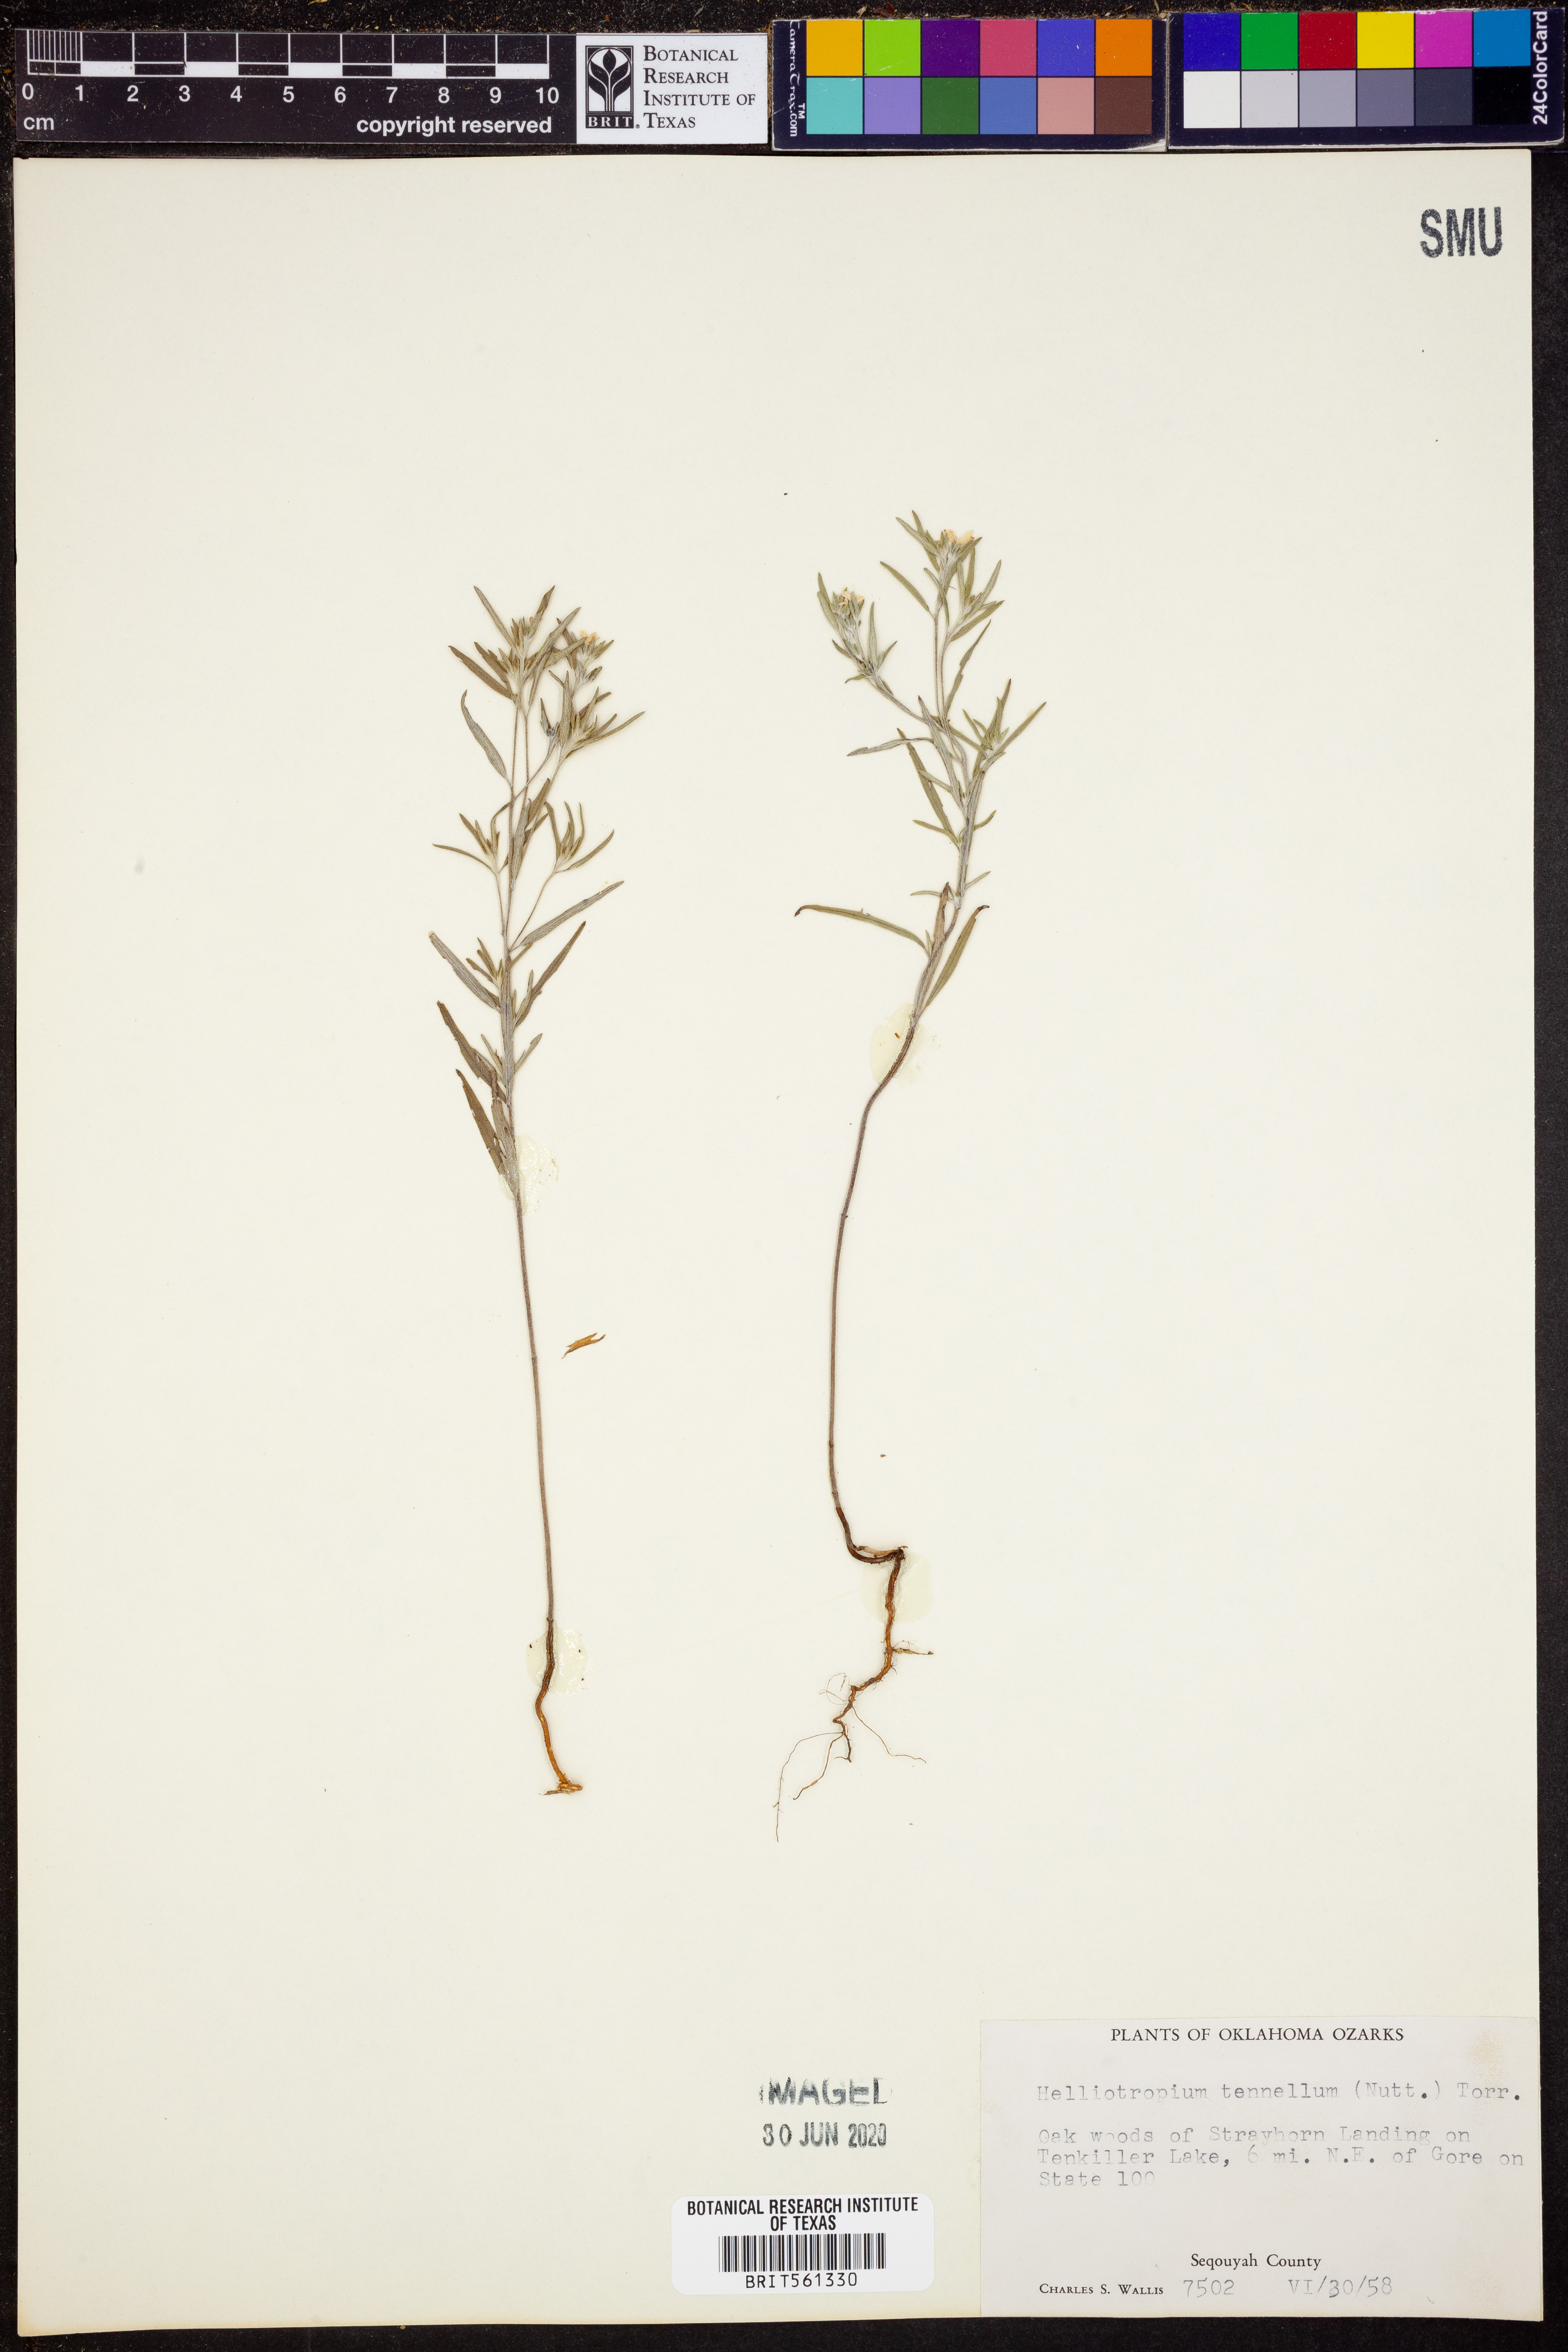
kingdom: Plantae
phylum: Tracheophyta
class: Magnoliopsida
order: Boraginales
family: Heliotropiaceae
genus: Euploca
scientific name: Euploca tenella
